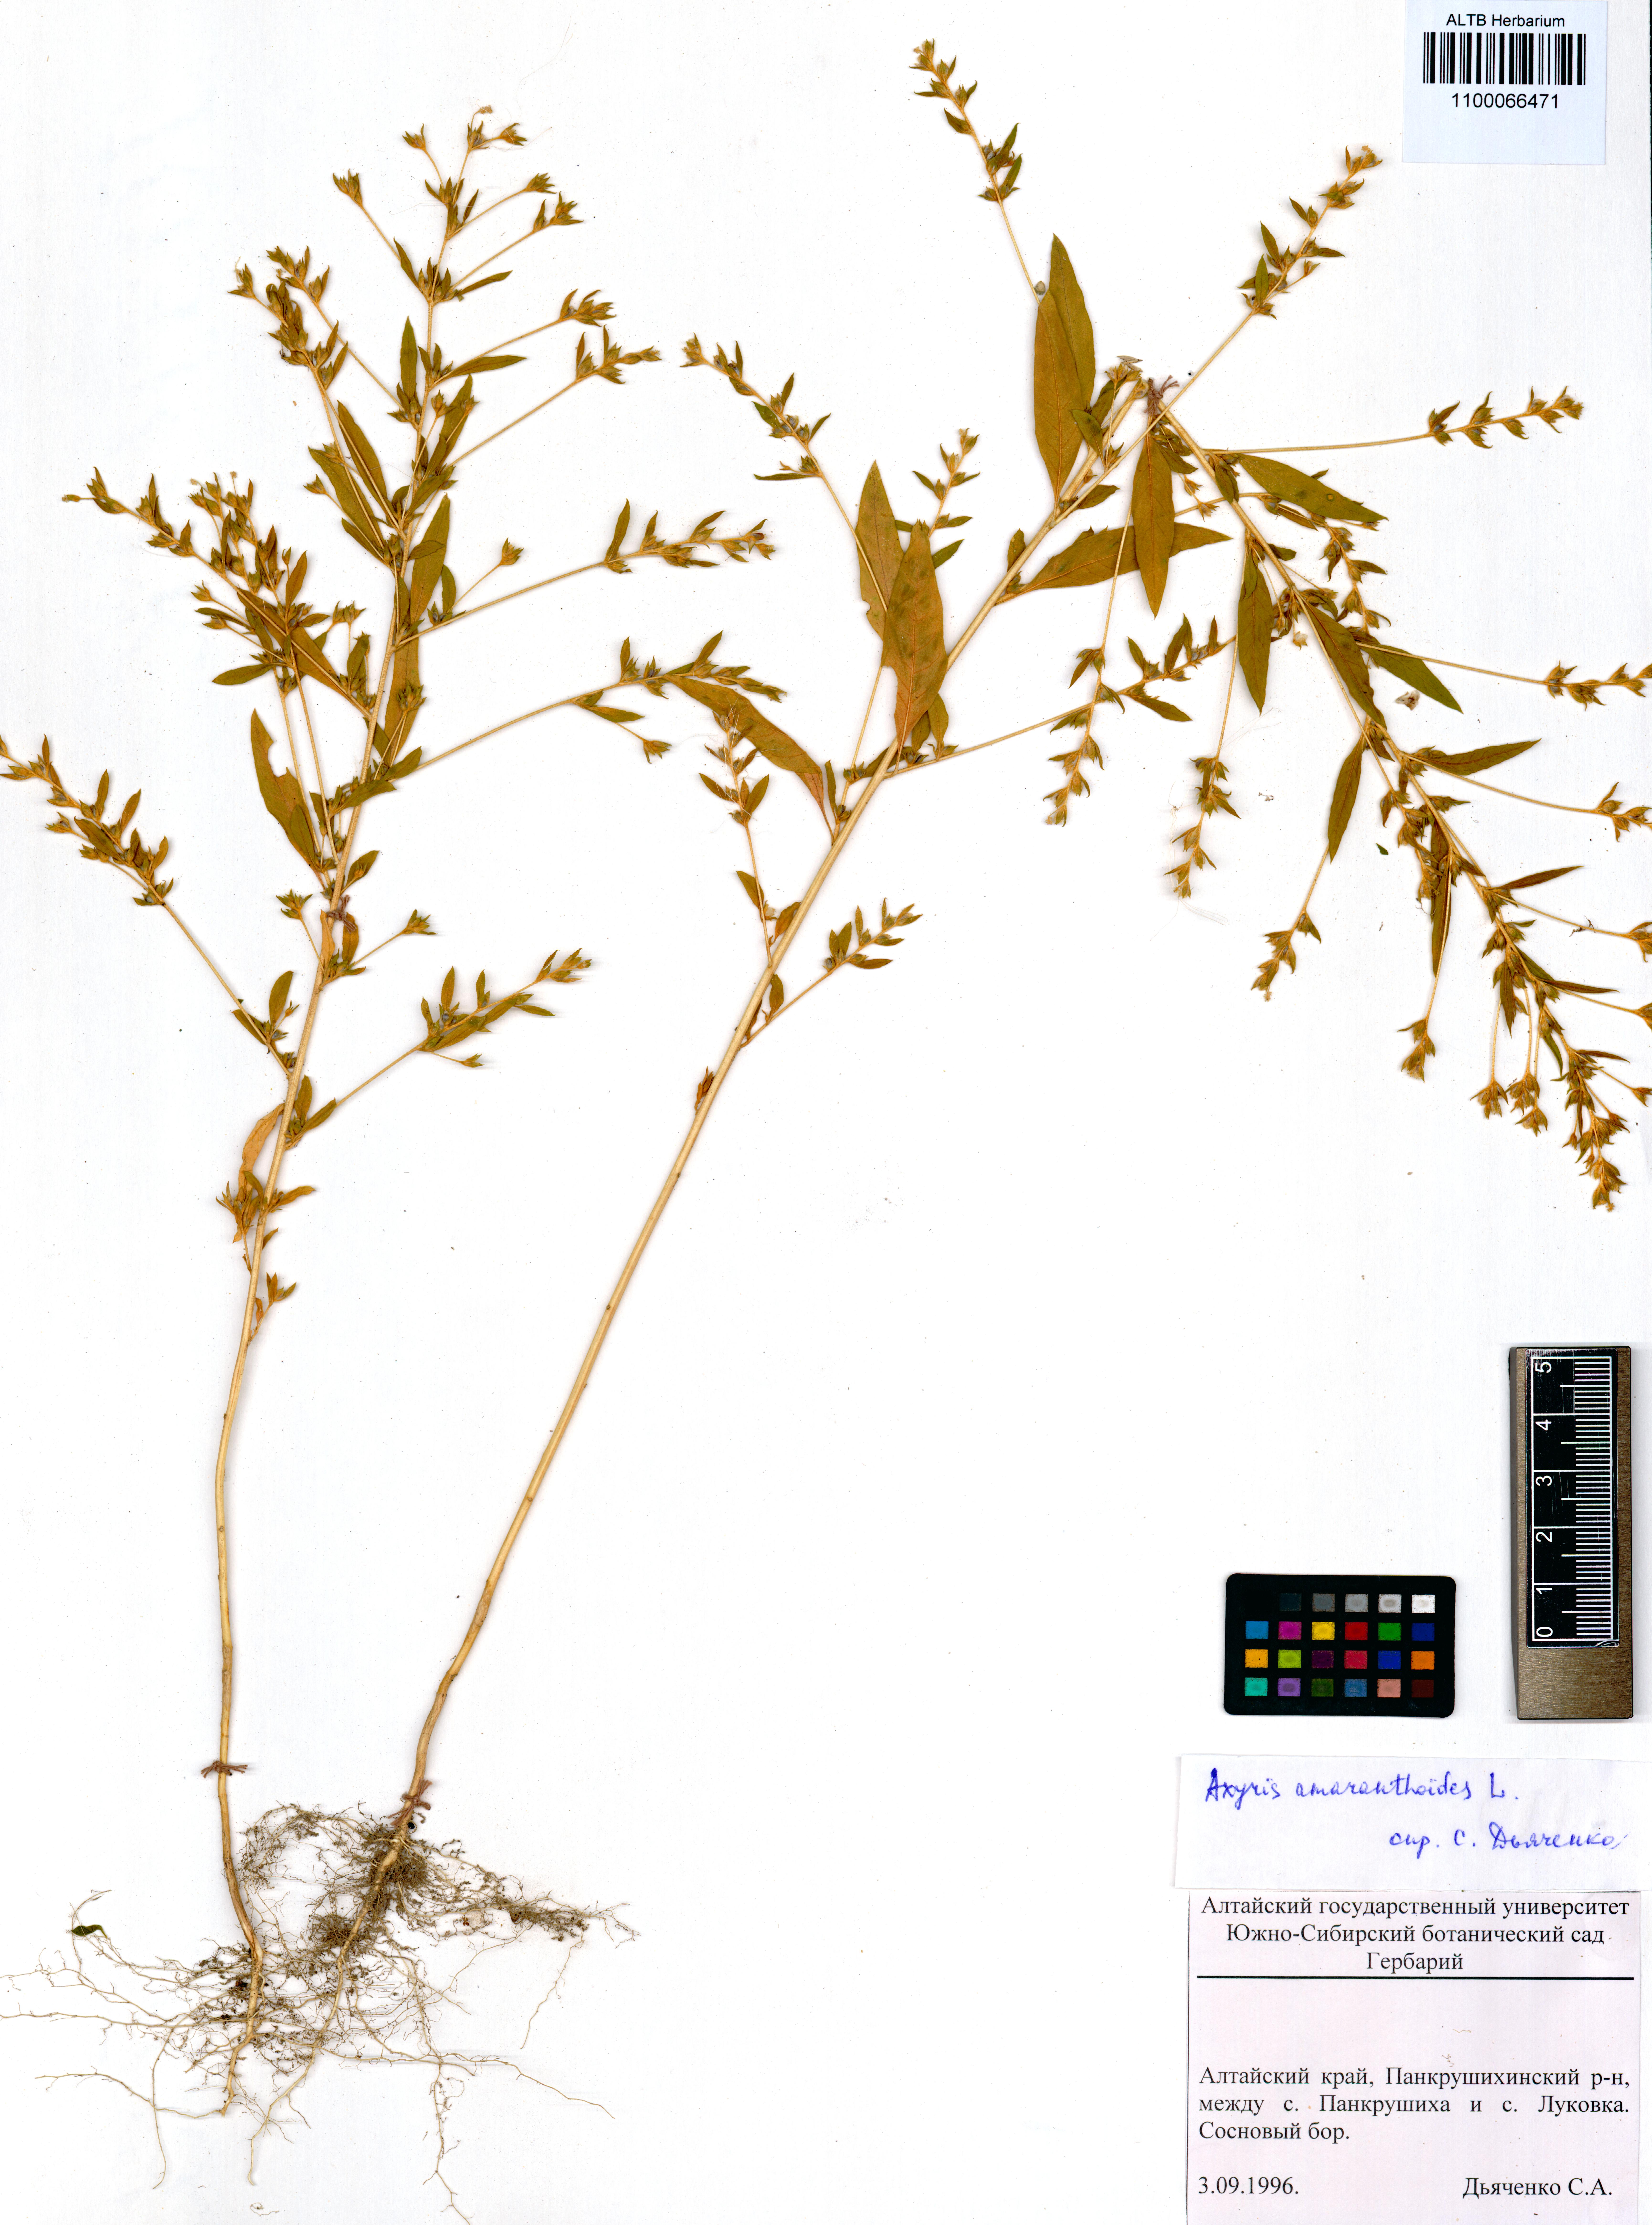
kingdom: Plantae
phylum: Tracheophyta
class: Magnoliopsida
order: Caryophyllales
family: Amaranthaceae
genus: Axyris
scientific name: Axyris amaranthoides
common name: Russian pigweed
